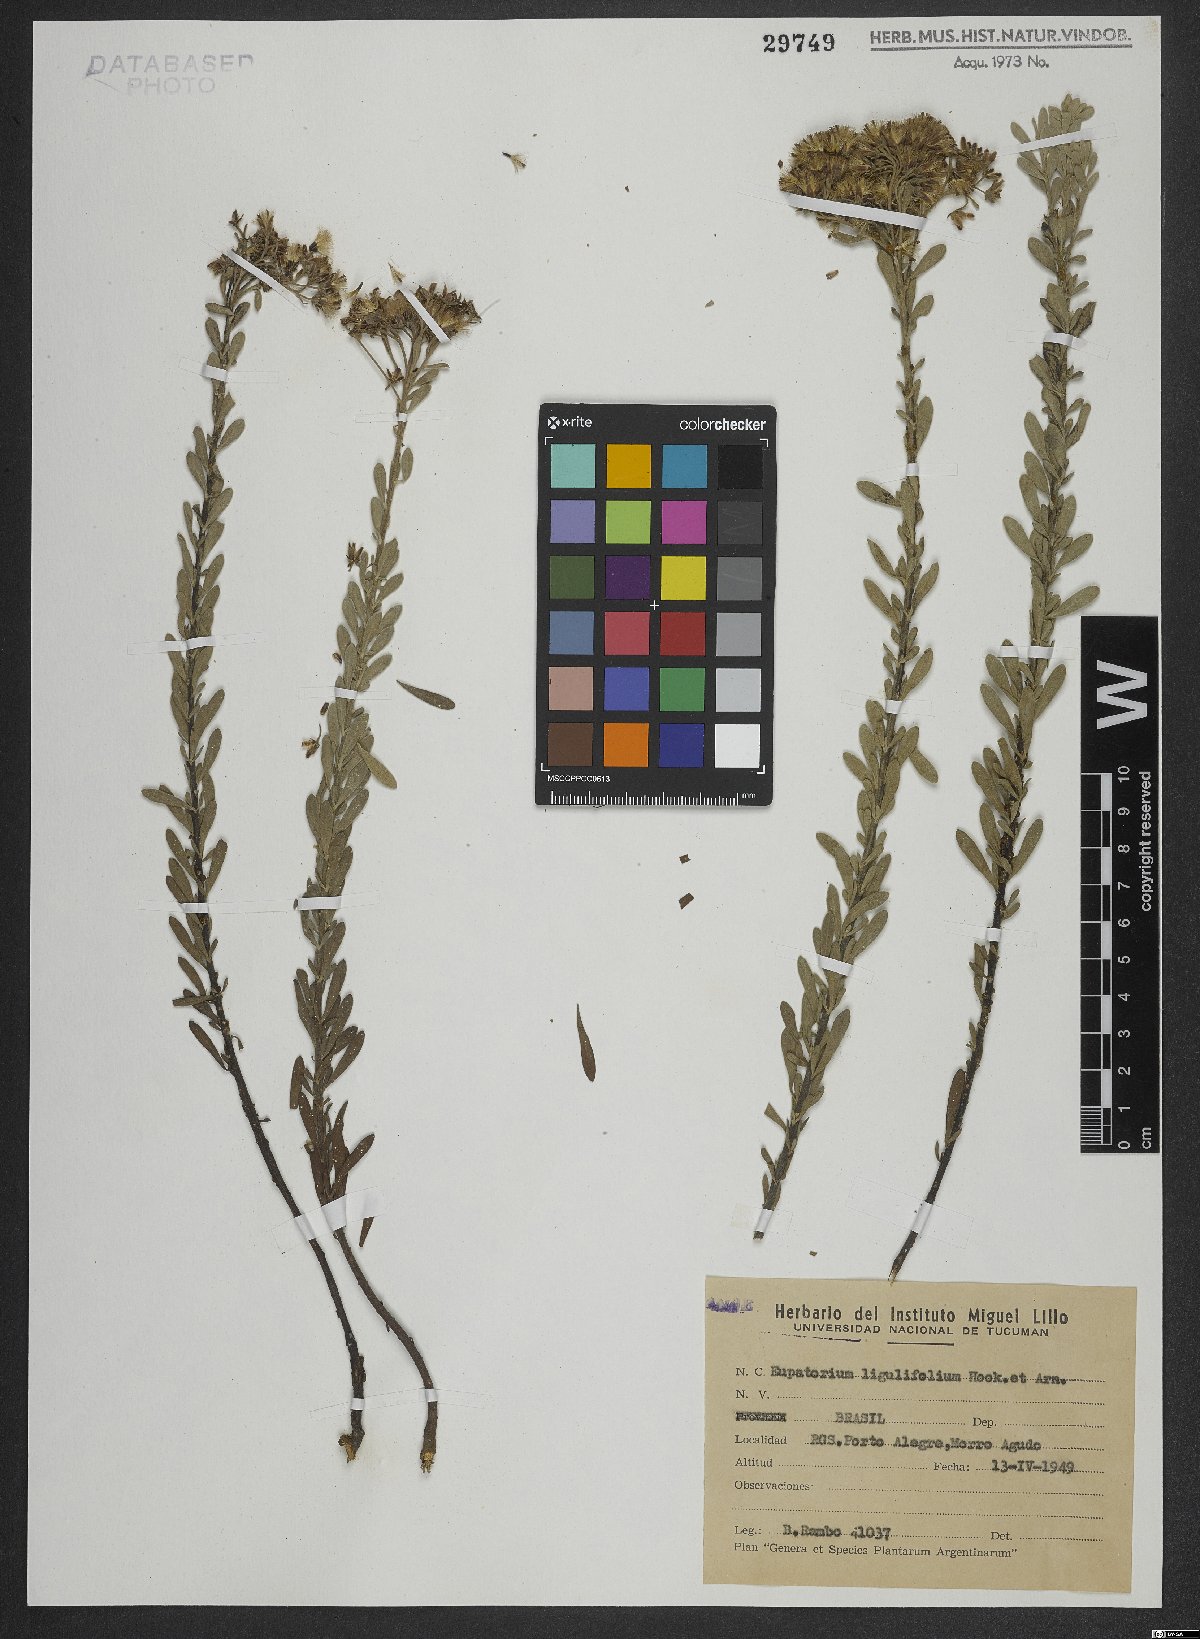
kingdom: Plantae
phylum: Tracheophyta
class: Magnoliopsida
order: Asterales
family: Asteraceae
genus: Disynaphia
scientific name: Disynaphia ligulifolia
